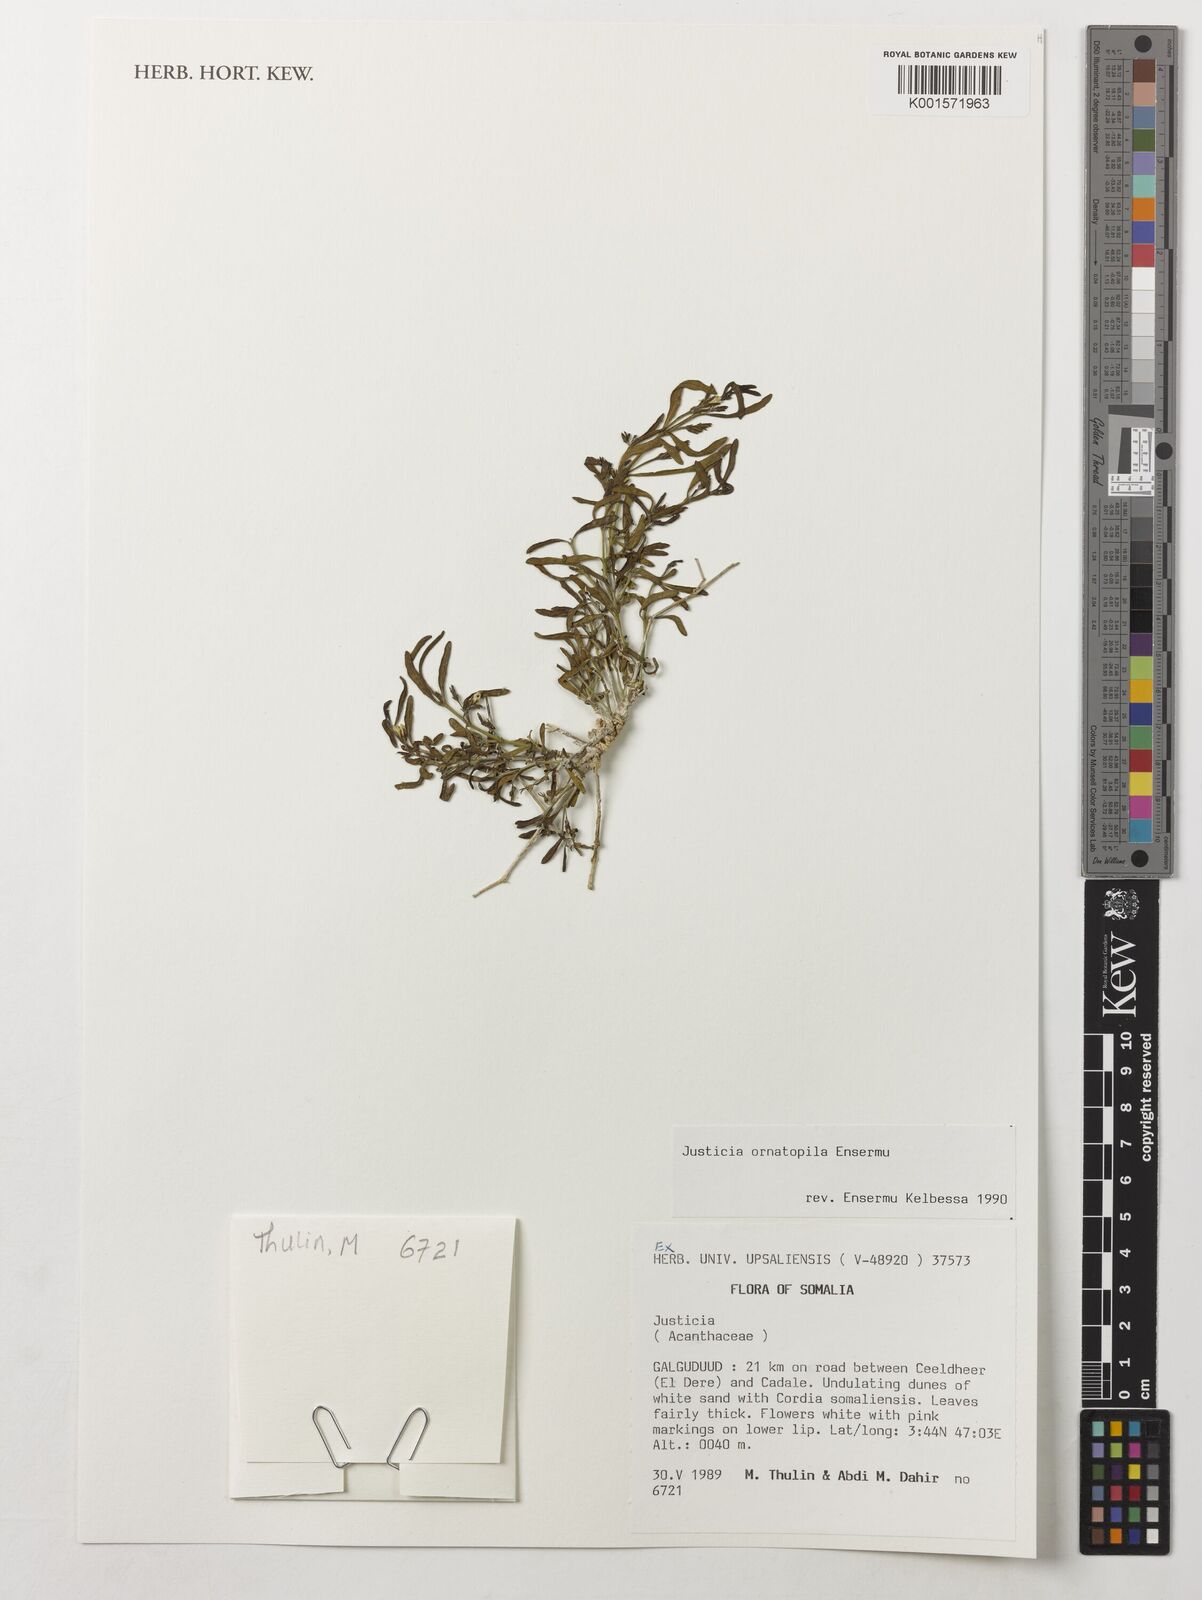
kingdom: Plantae
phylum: Tracheophyta
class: Magnoliopsida
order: Lamiales
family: Acanthaceae
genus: Justicia
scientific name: Justicia ornatopila
